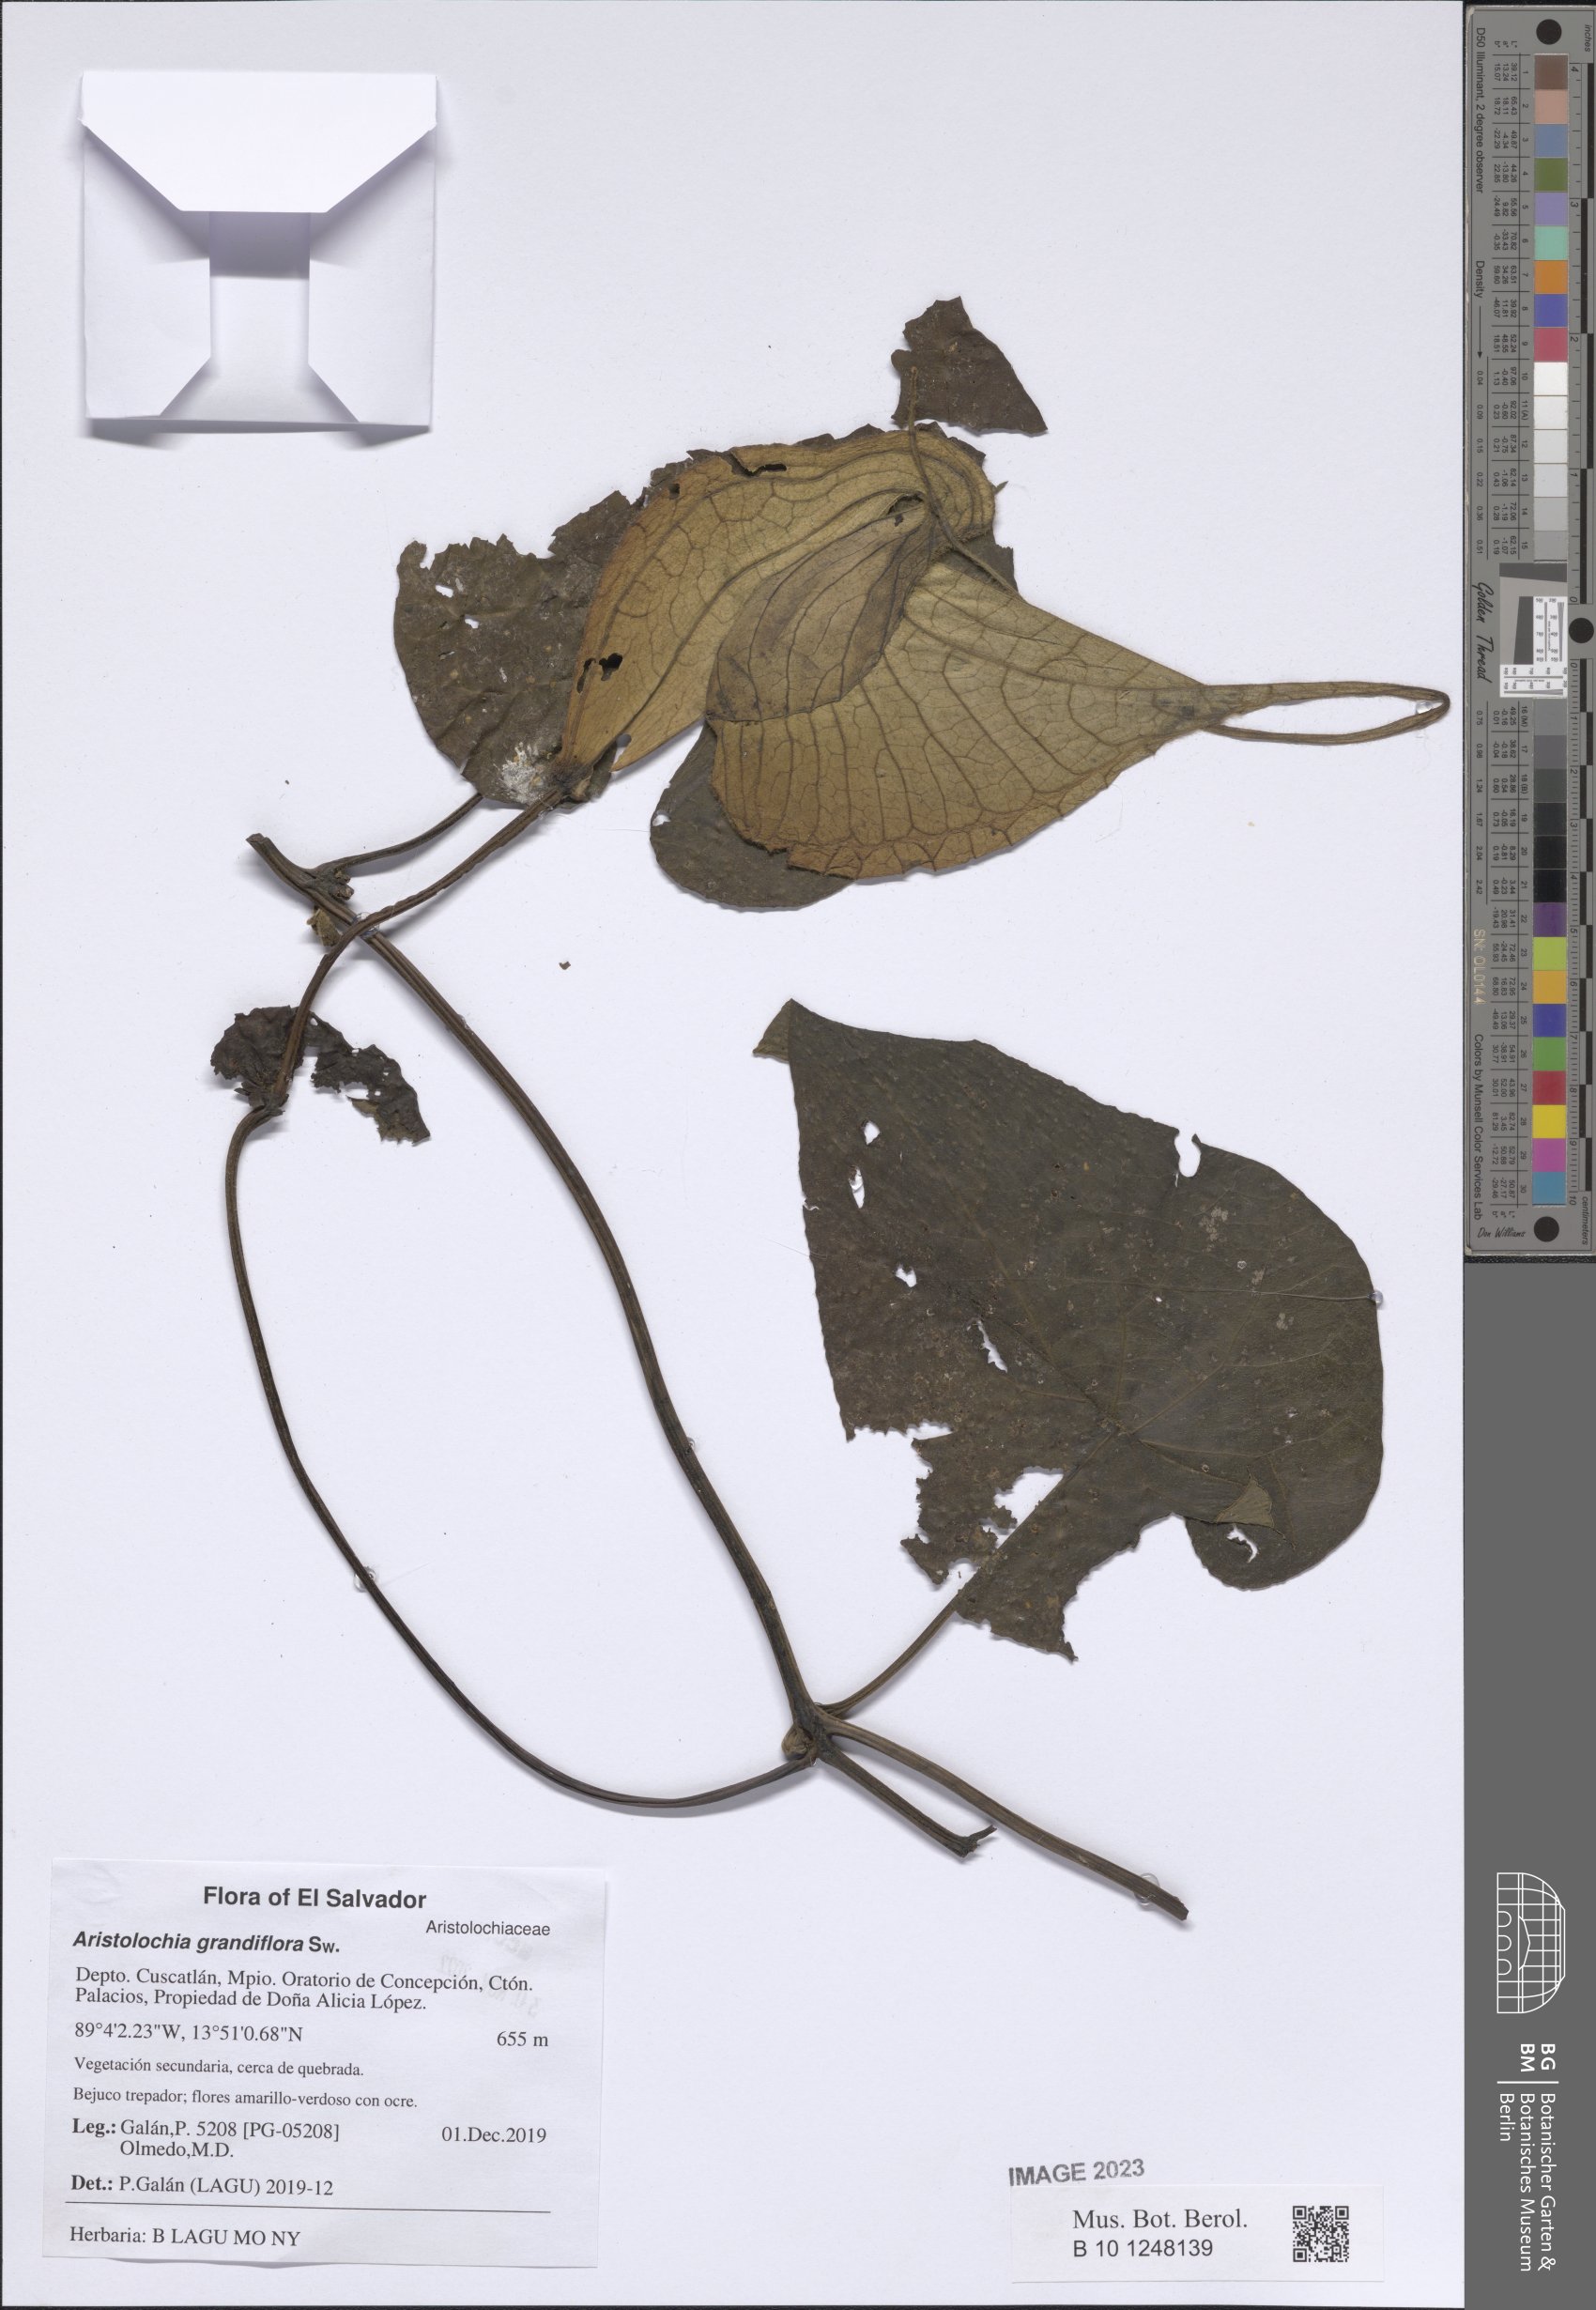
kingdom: Plantae
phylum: Tracheophyta
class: Magnoliopsida
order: Piperales
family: Aristolochiaceae
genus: Aristolochia
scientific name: Aristolochia grandiflora
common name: Pelicanflower
